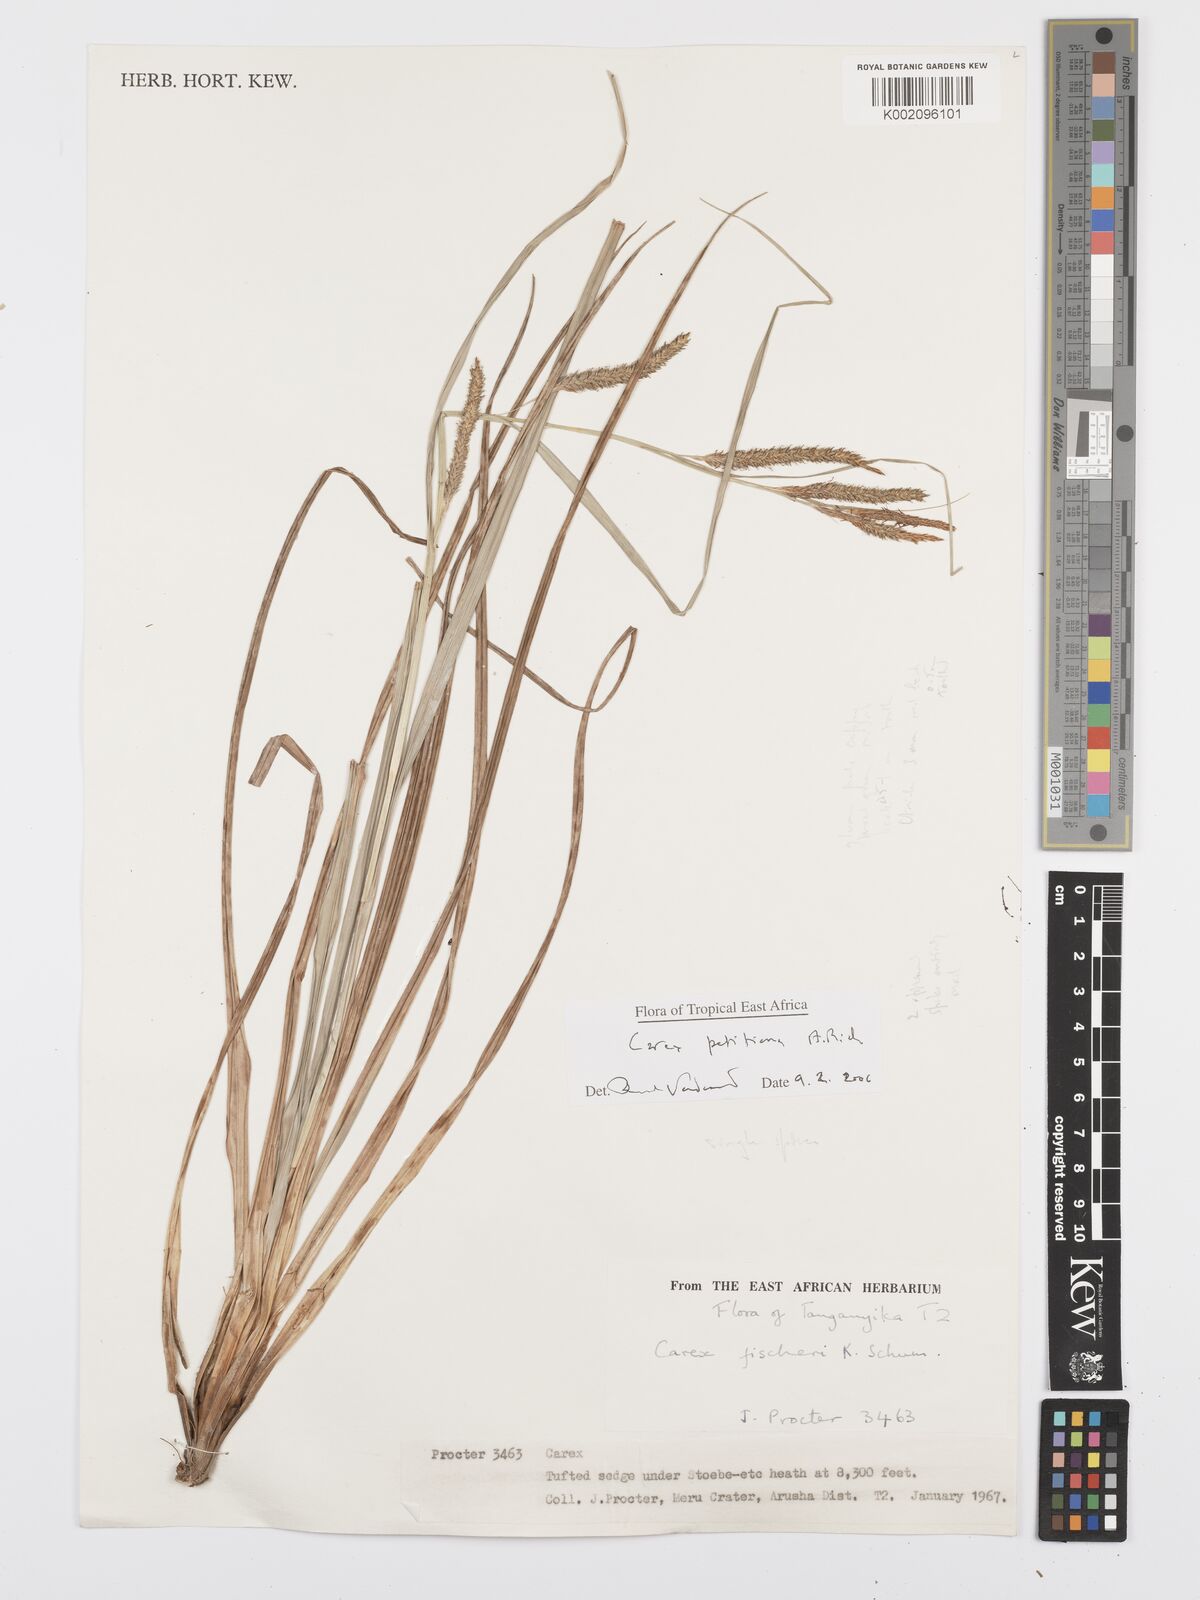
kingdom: Plantae
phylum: Tracheophyta
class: Liliopsida
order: Poales
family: Cyperaceae
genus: Carex
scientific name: Carex petitiana
